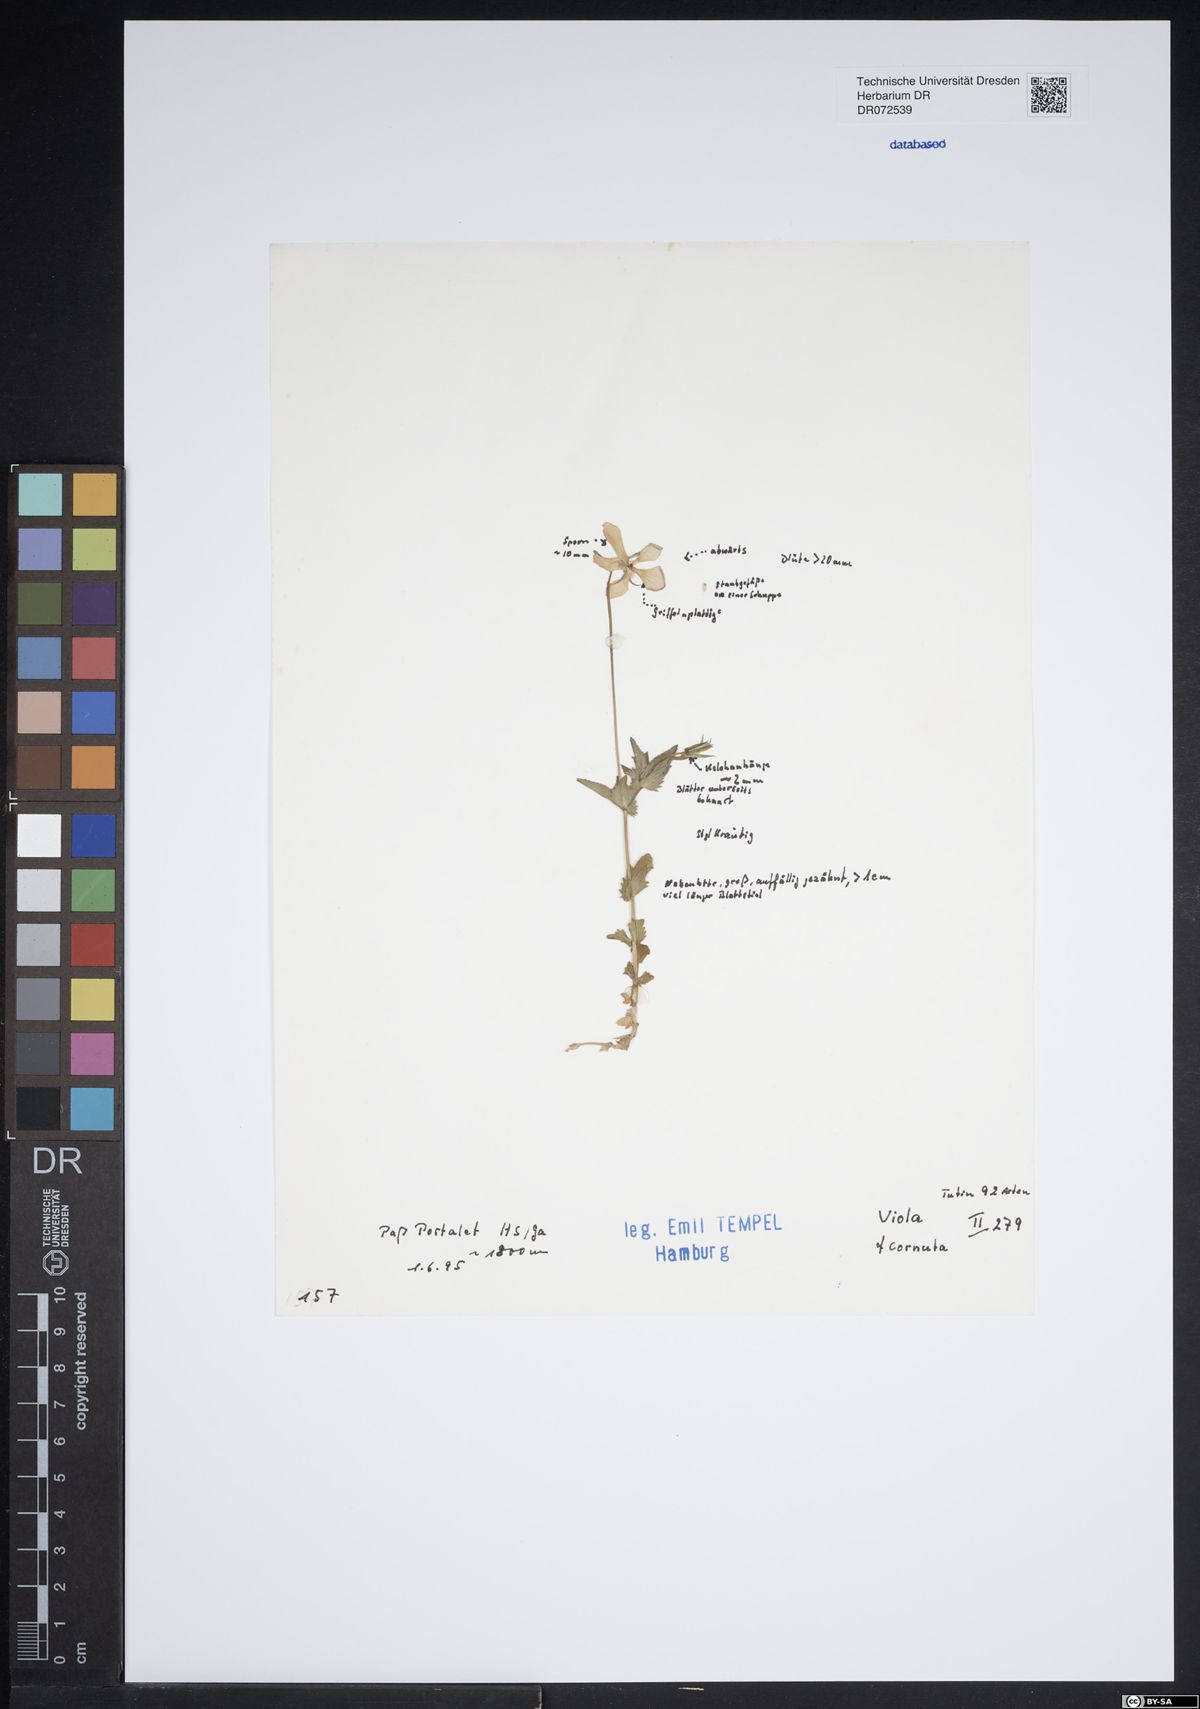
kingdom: Plantae
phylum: Tracheophyta
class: Magnoliopsida
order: Malpighiales
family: Violaceae
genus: Viola
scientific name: Viola cornuta
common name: Horned pansy
